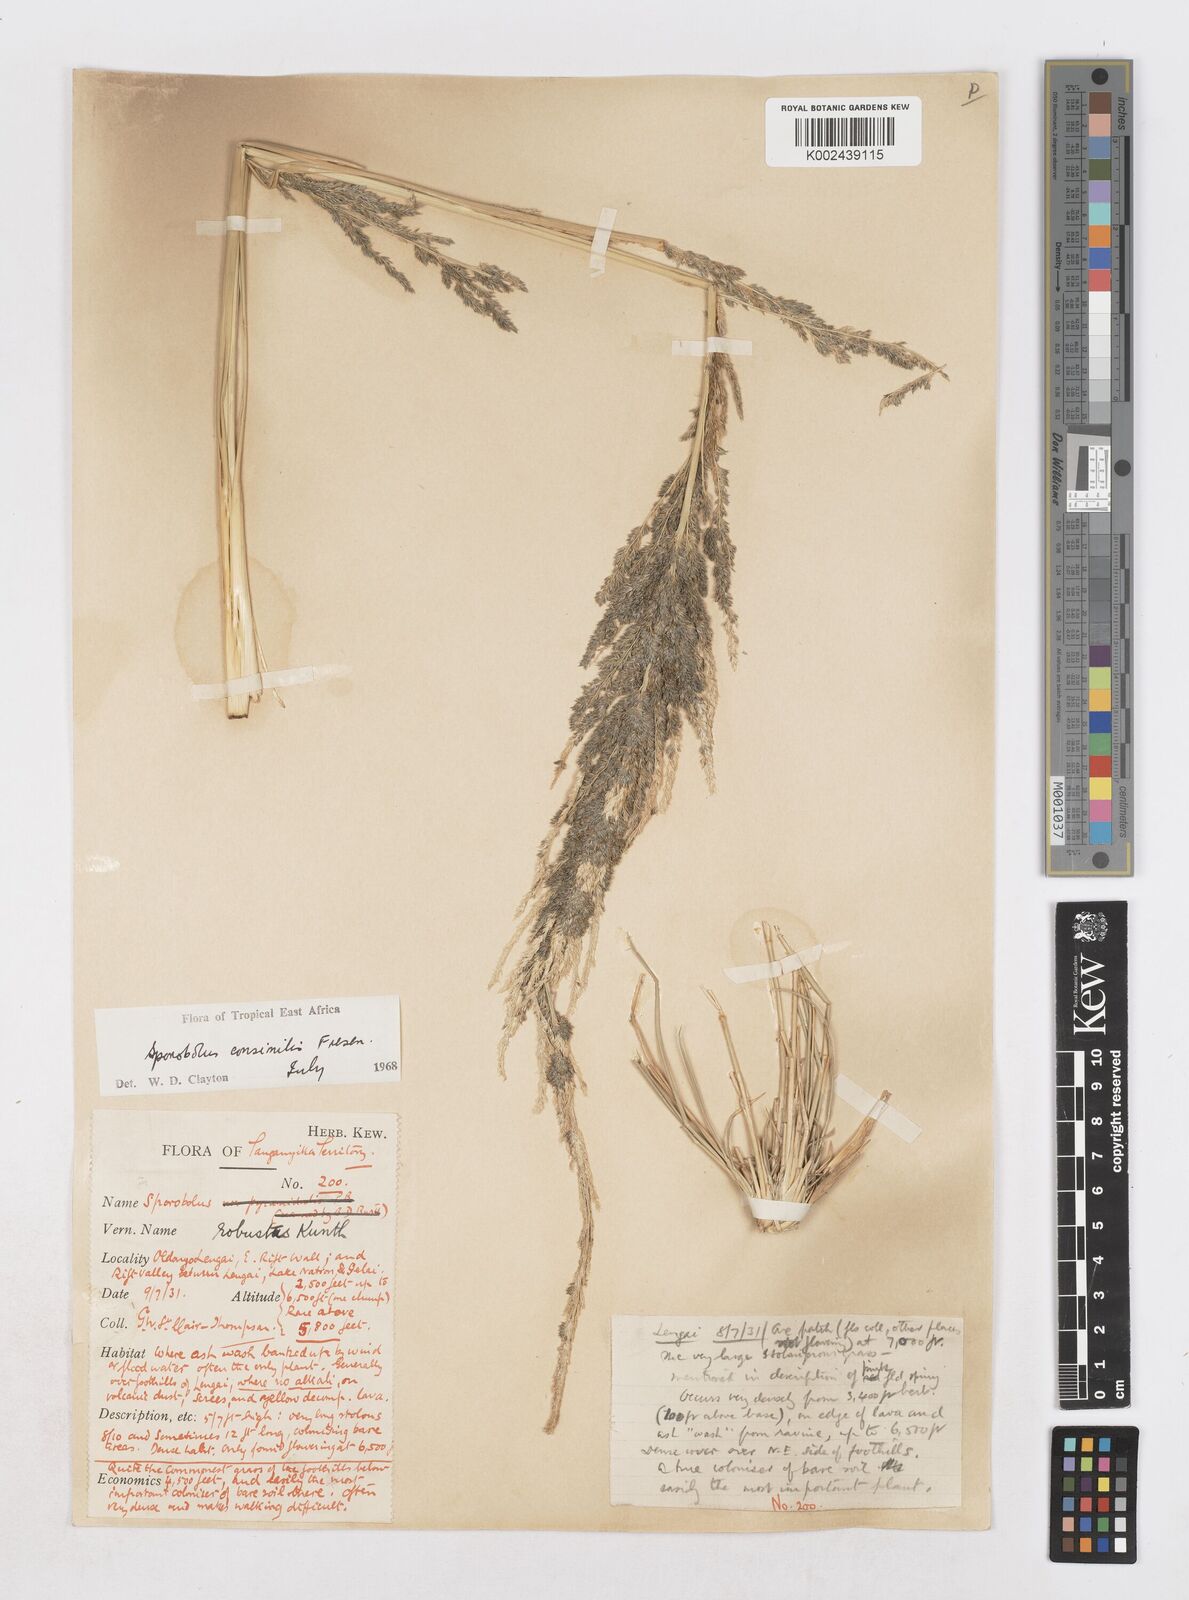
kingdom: Plantae
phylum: Tracheophyta
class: Liliopsida
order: Poales
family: Poaceae
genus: Sporobolus
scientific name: Sporobolus consimilis
